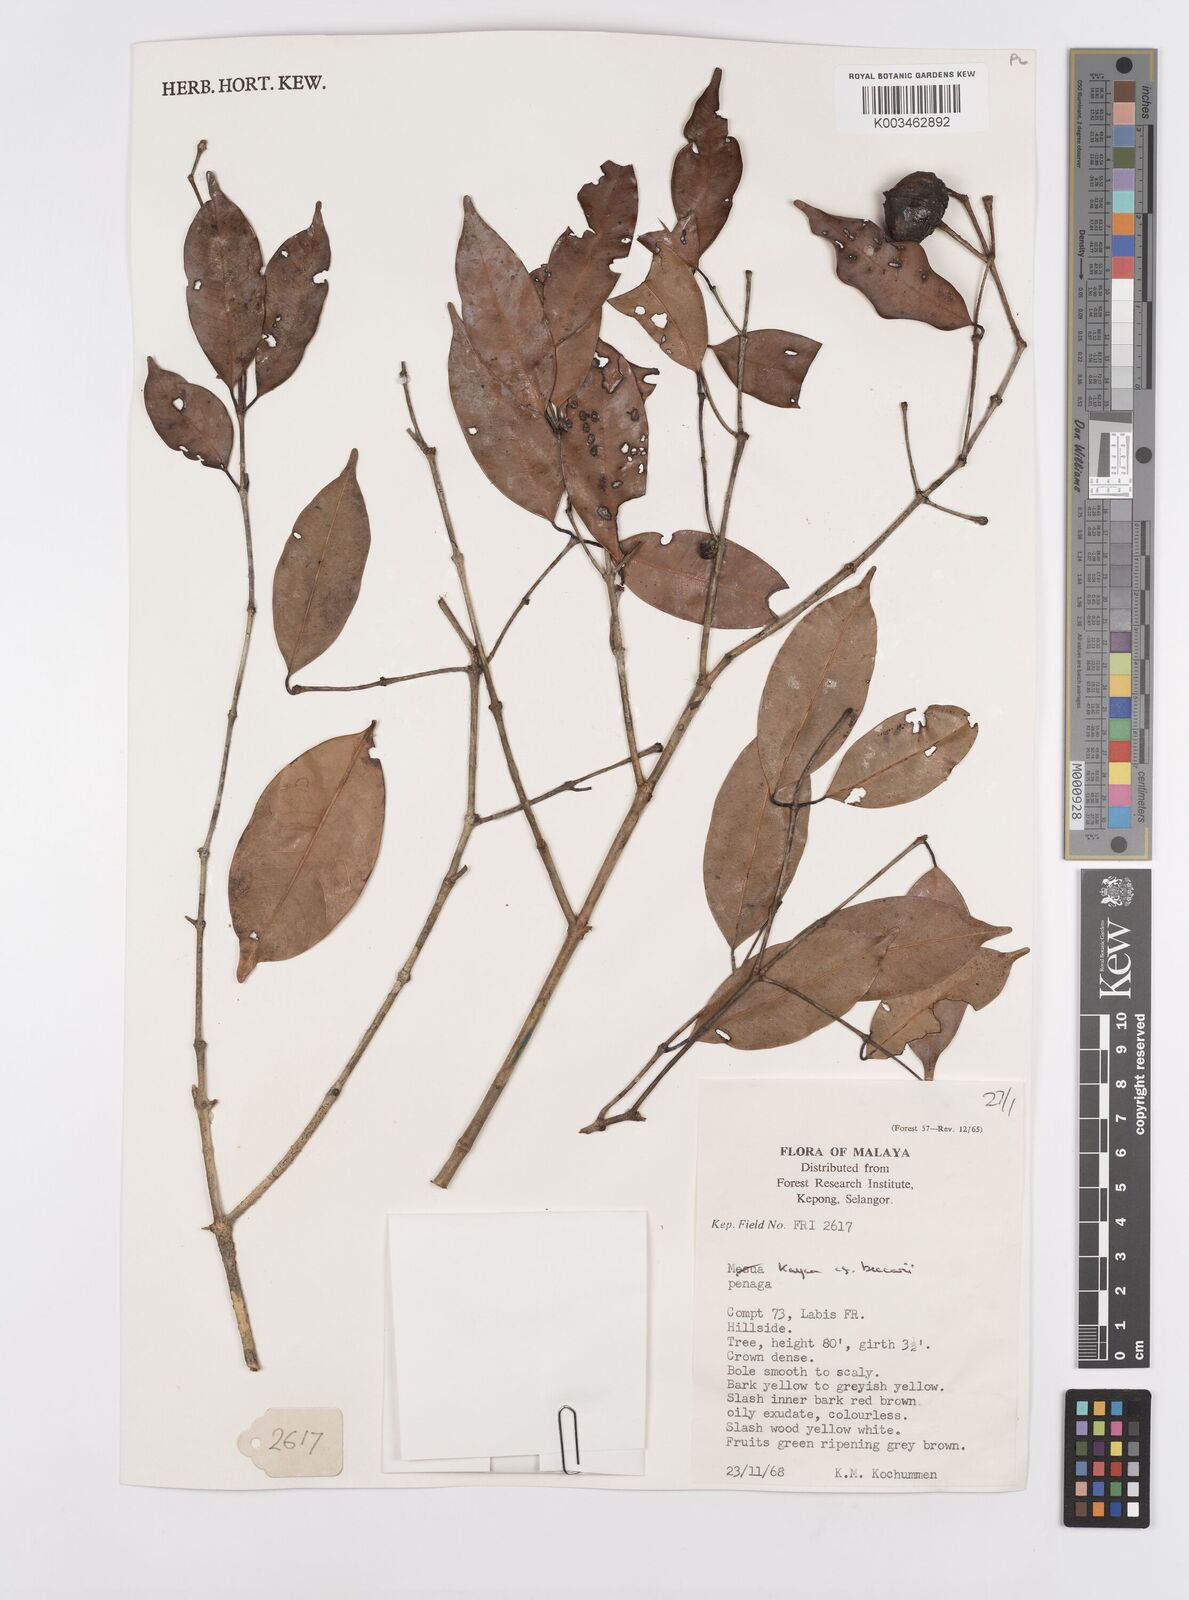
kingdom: Plantae
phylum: Tracheophyta
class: Magnoliopsida
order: Malpighiales
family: Calophyllaceae
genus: Kayea
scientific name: Kayea beccariana
